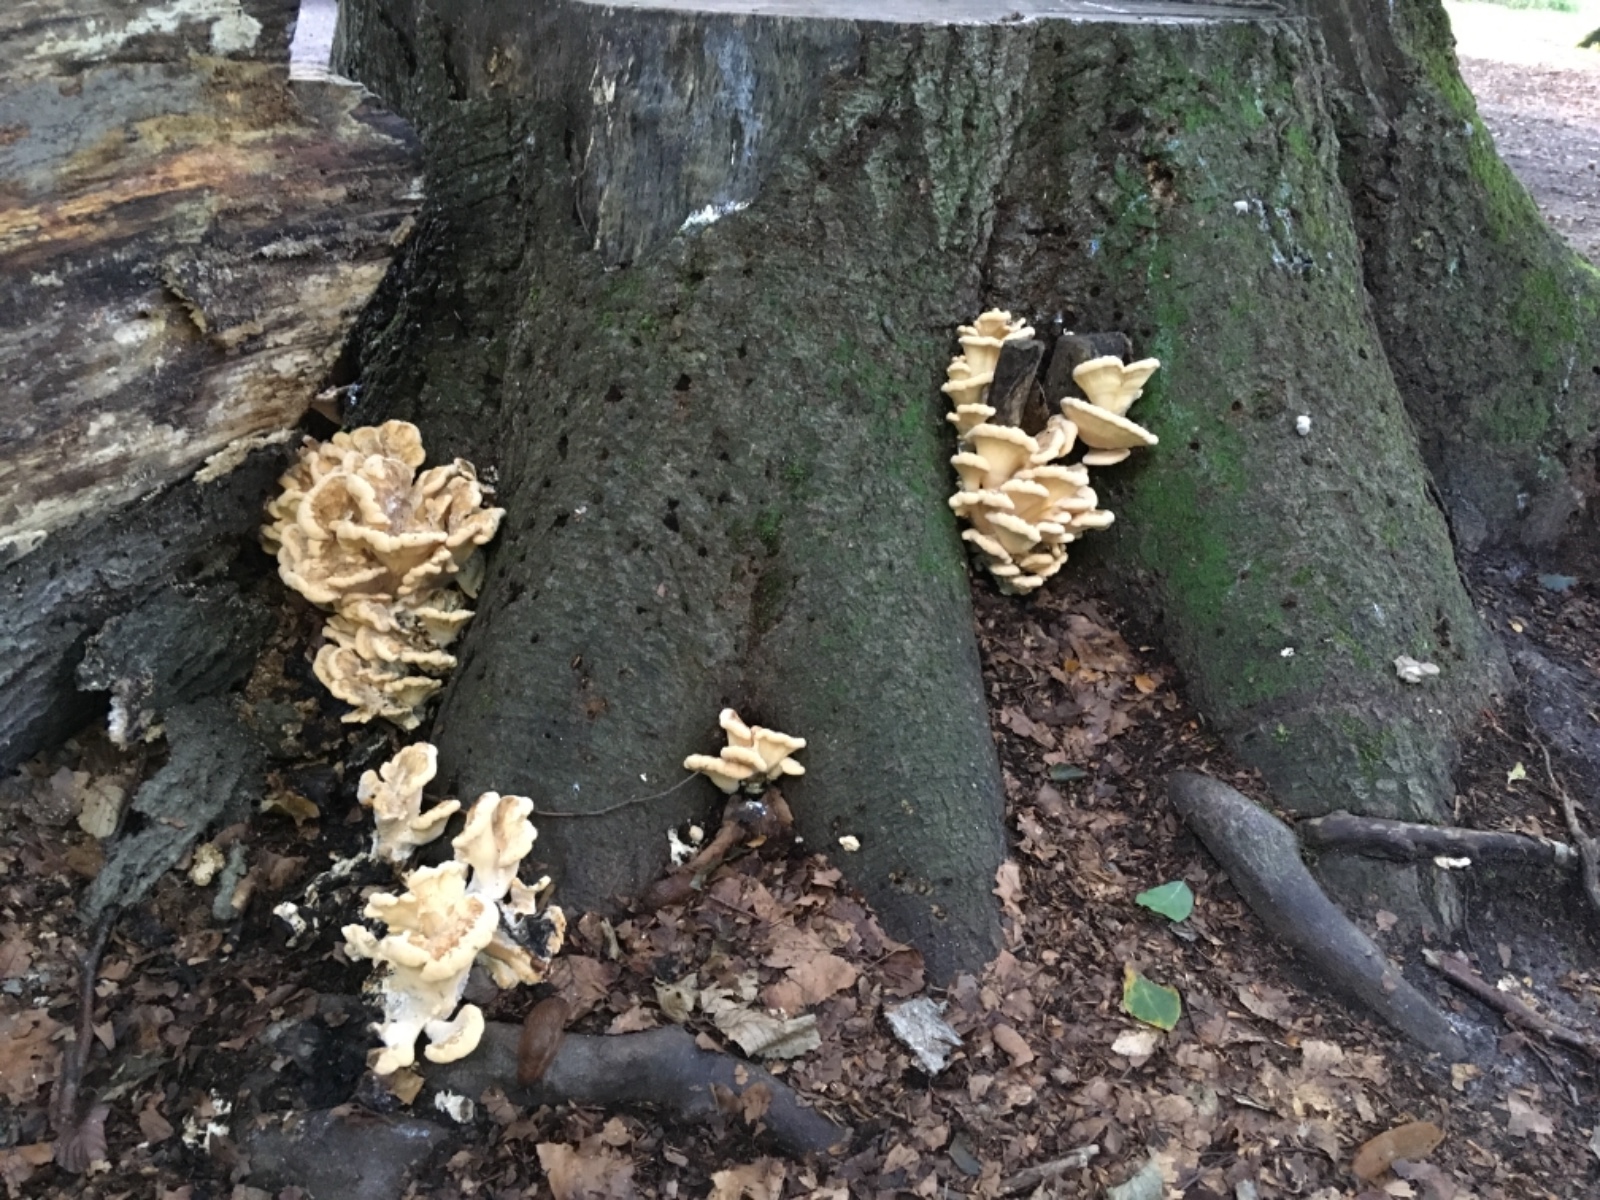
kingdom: Fungi
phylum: Basidiomycota
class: Agaricomycetes
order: Polyporales
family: Meripilaceae
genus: Meripilus
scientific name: Meripilus giganteus
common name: kæmpeporesvamp
